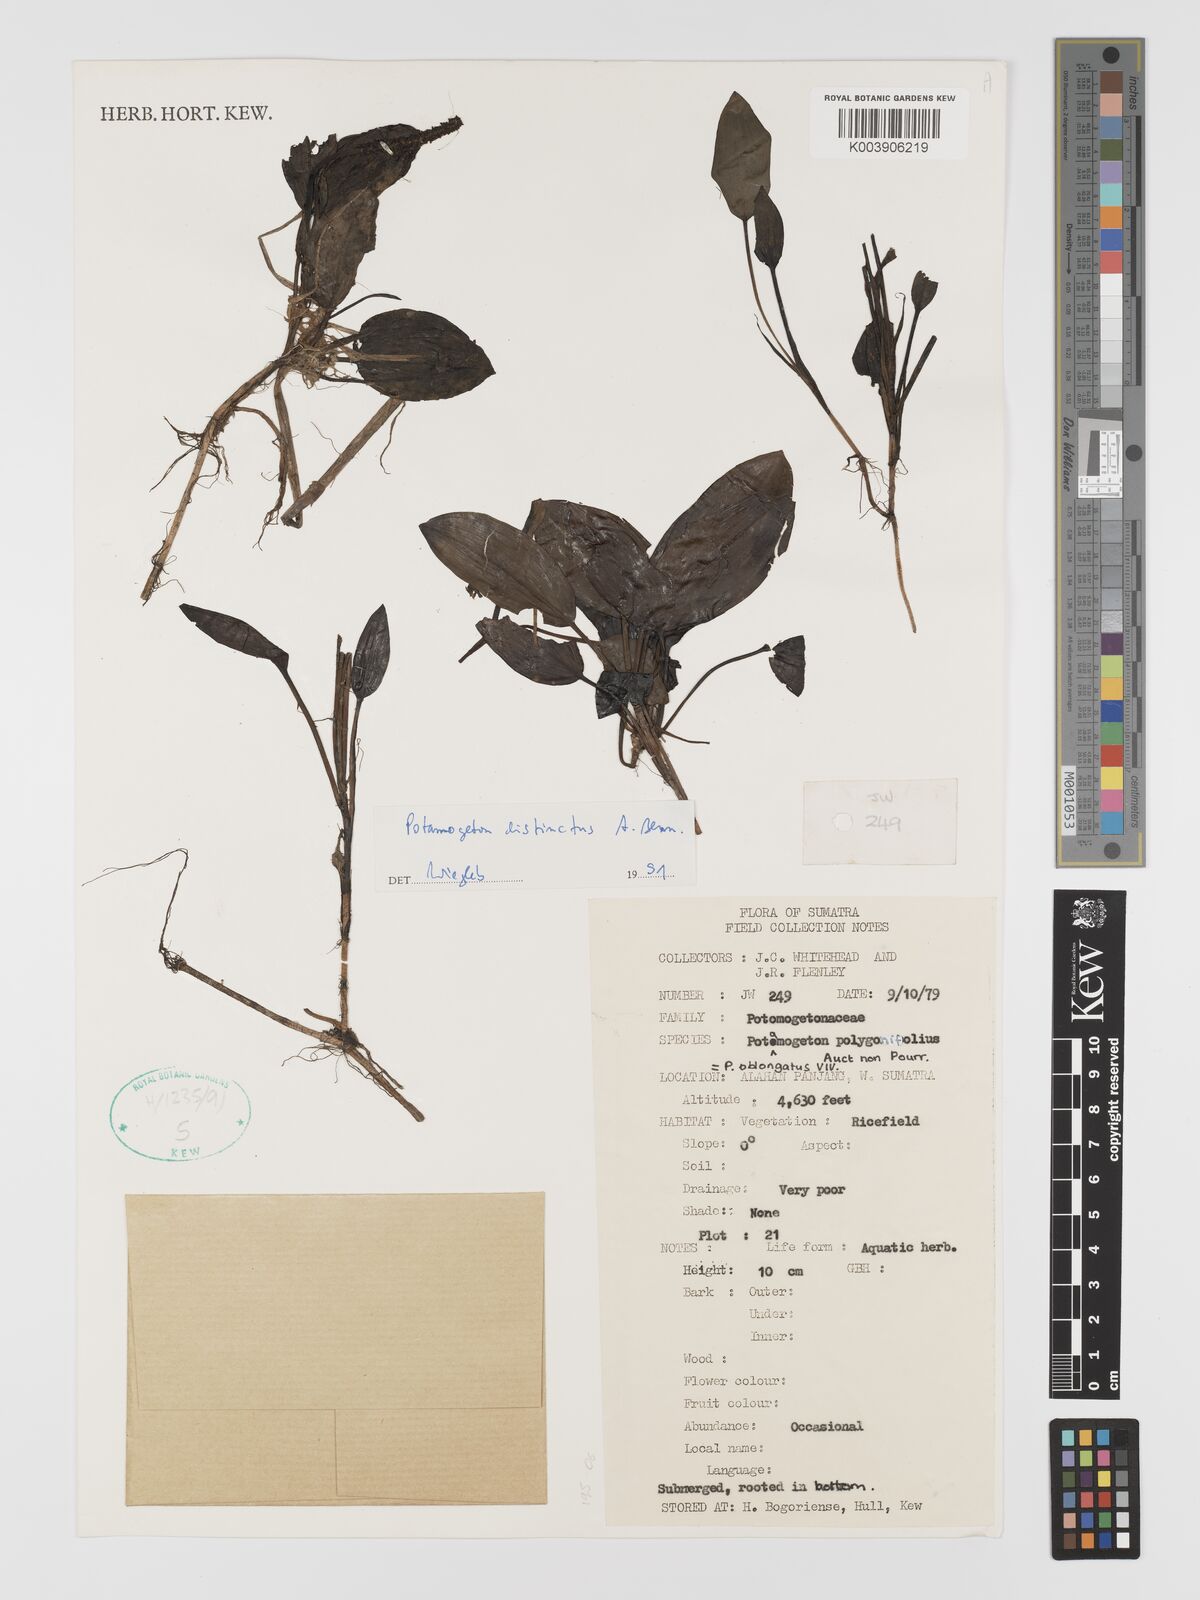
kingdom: Plantae
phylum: Tracheophyta
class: Liliopsida
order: Alismatales
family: Potamogetonaceae
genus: Potamogeton
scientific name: Potamogeton distinctus
